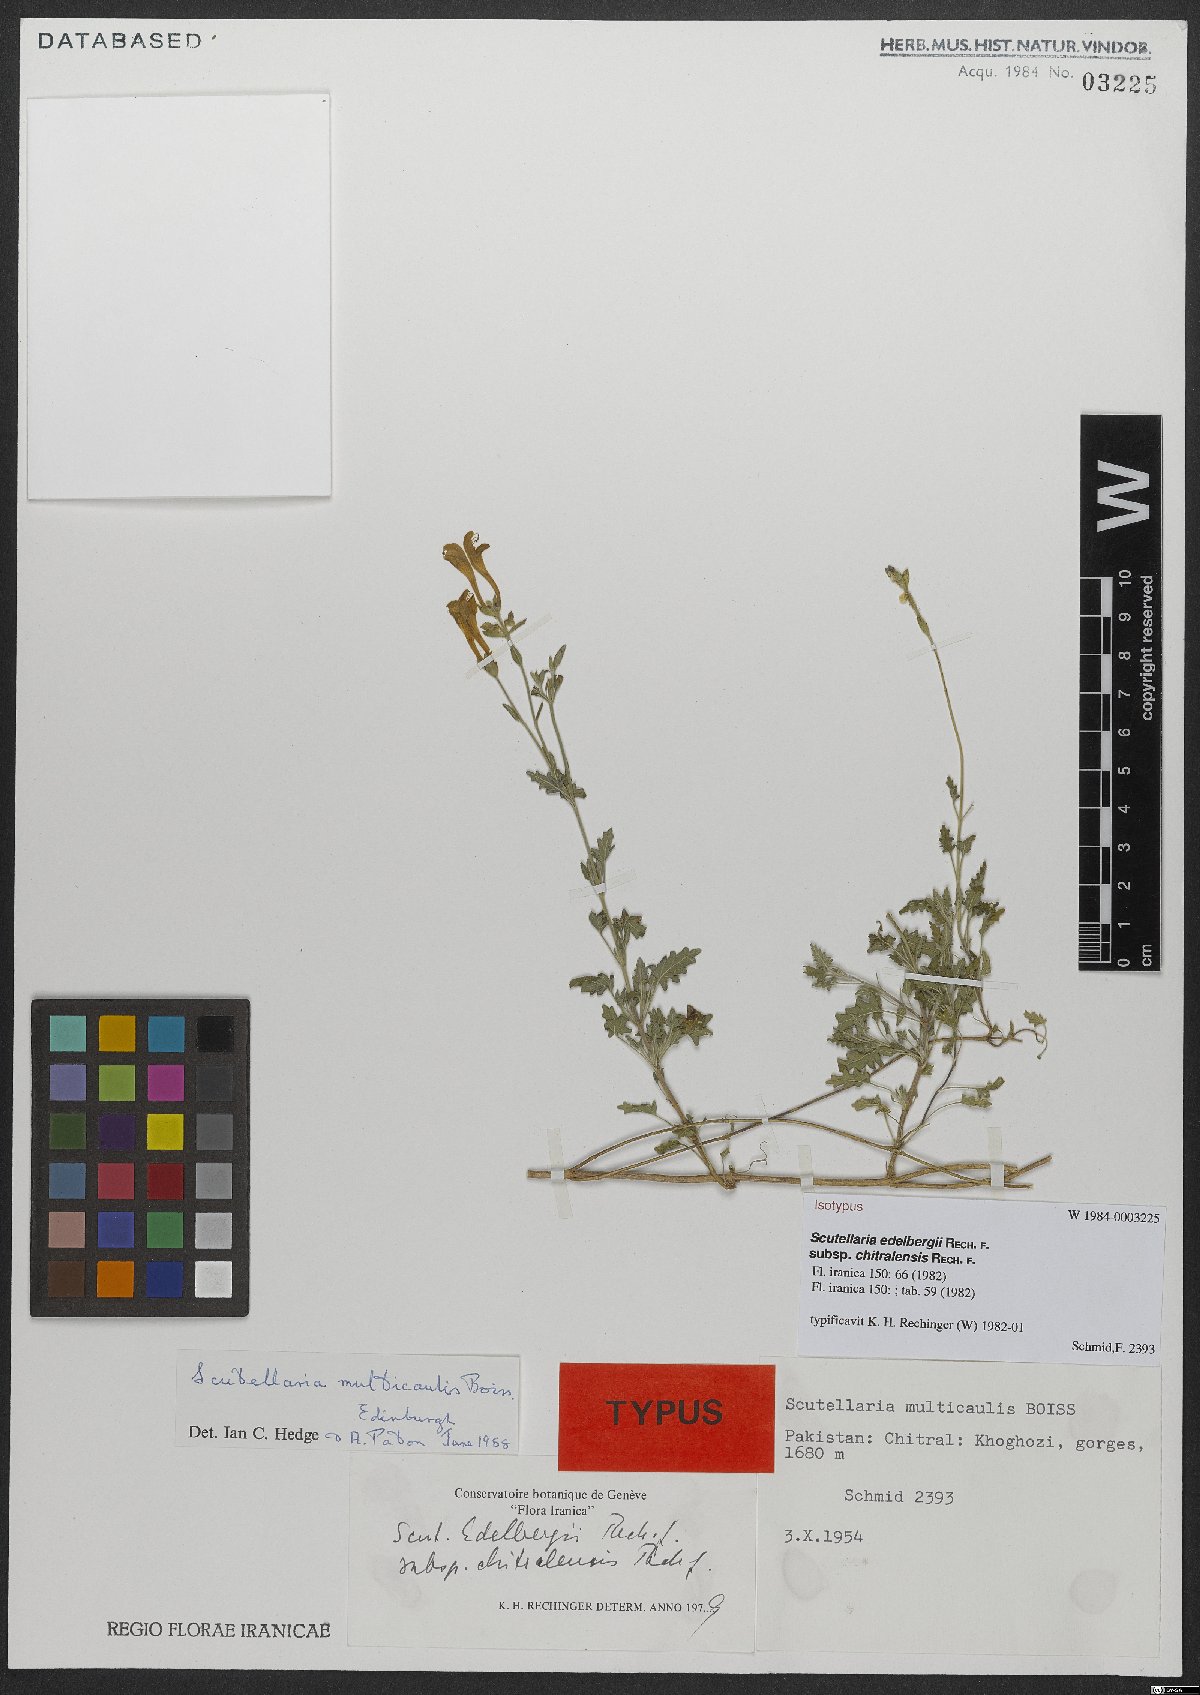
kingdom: Plantae
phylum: Tracheophyta
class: Magnoliopsida
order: Lamiales
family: Lamiaceae
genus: Scutellaria
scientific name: Scutellaria edelbergii
